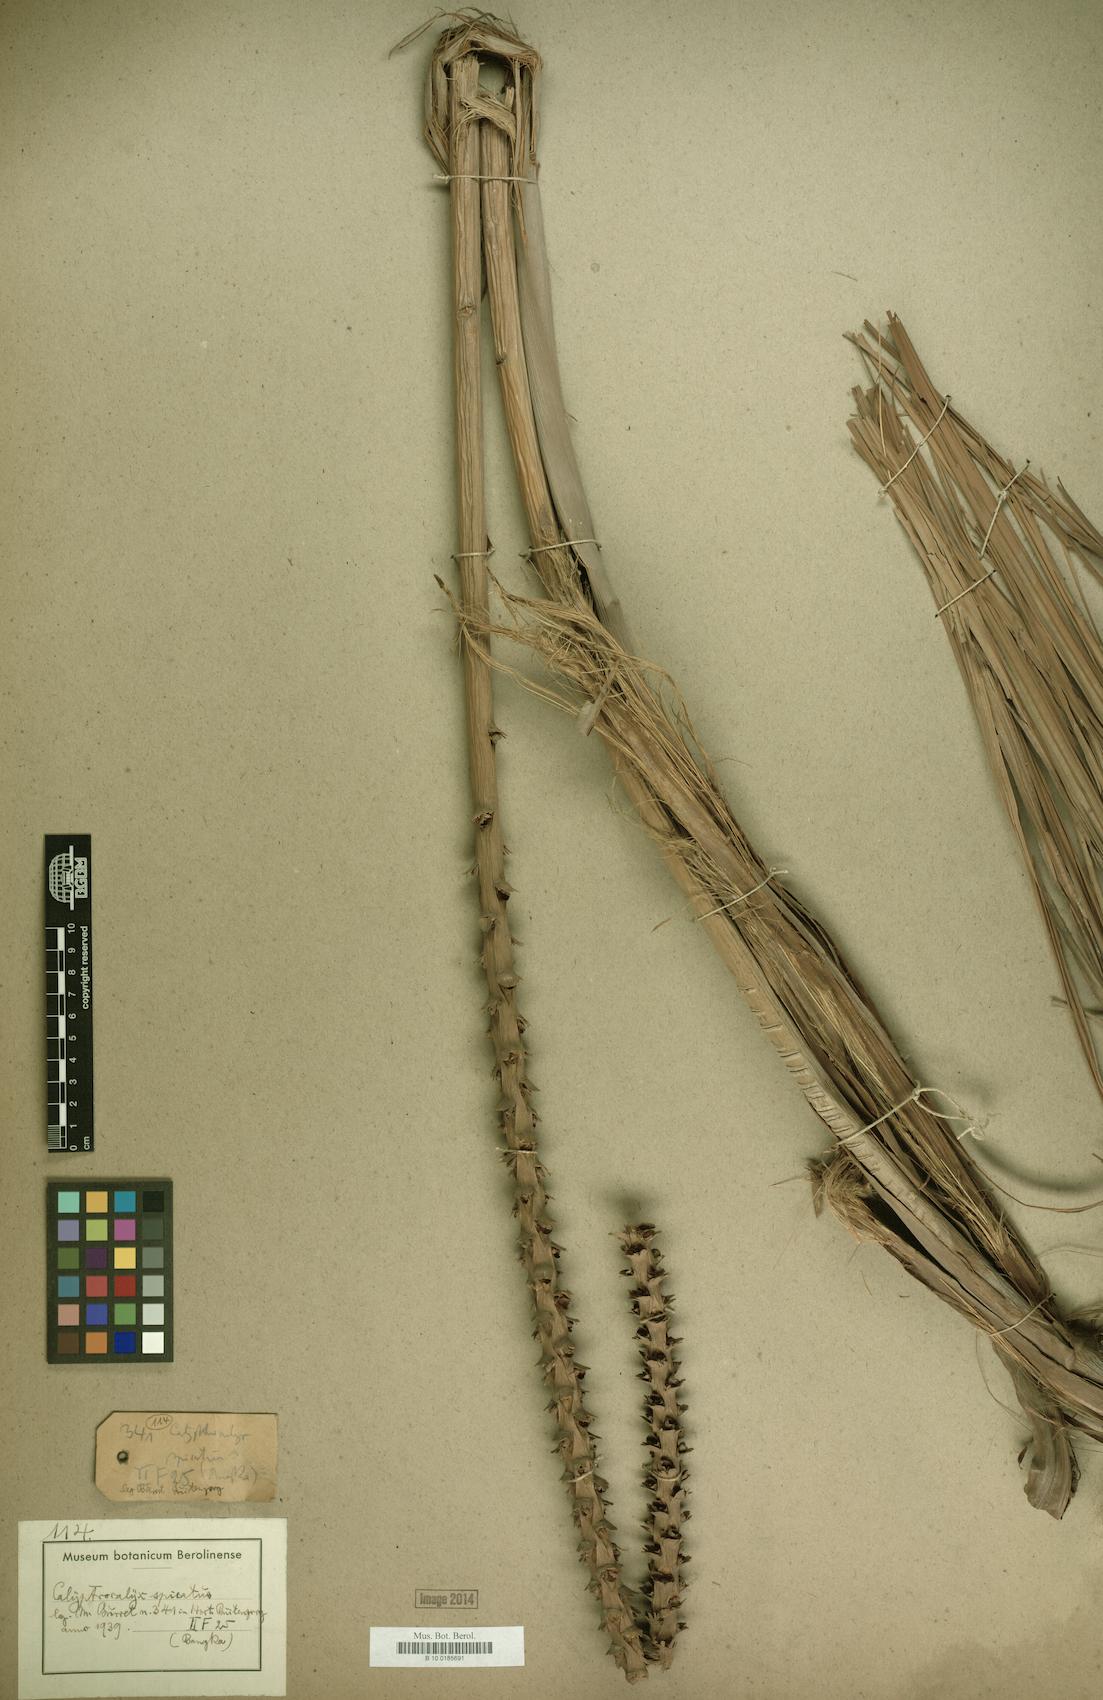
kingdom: Plantae
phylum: Tracheophyta
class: Liliopsida
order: Arecales
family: Arecaceae
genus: Calyptrocalyx
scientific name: Calyptrocalyx spicatus
